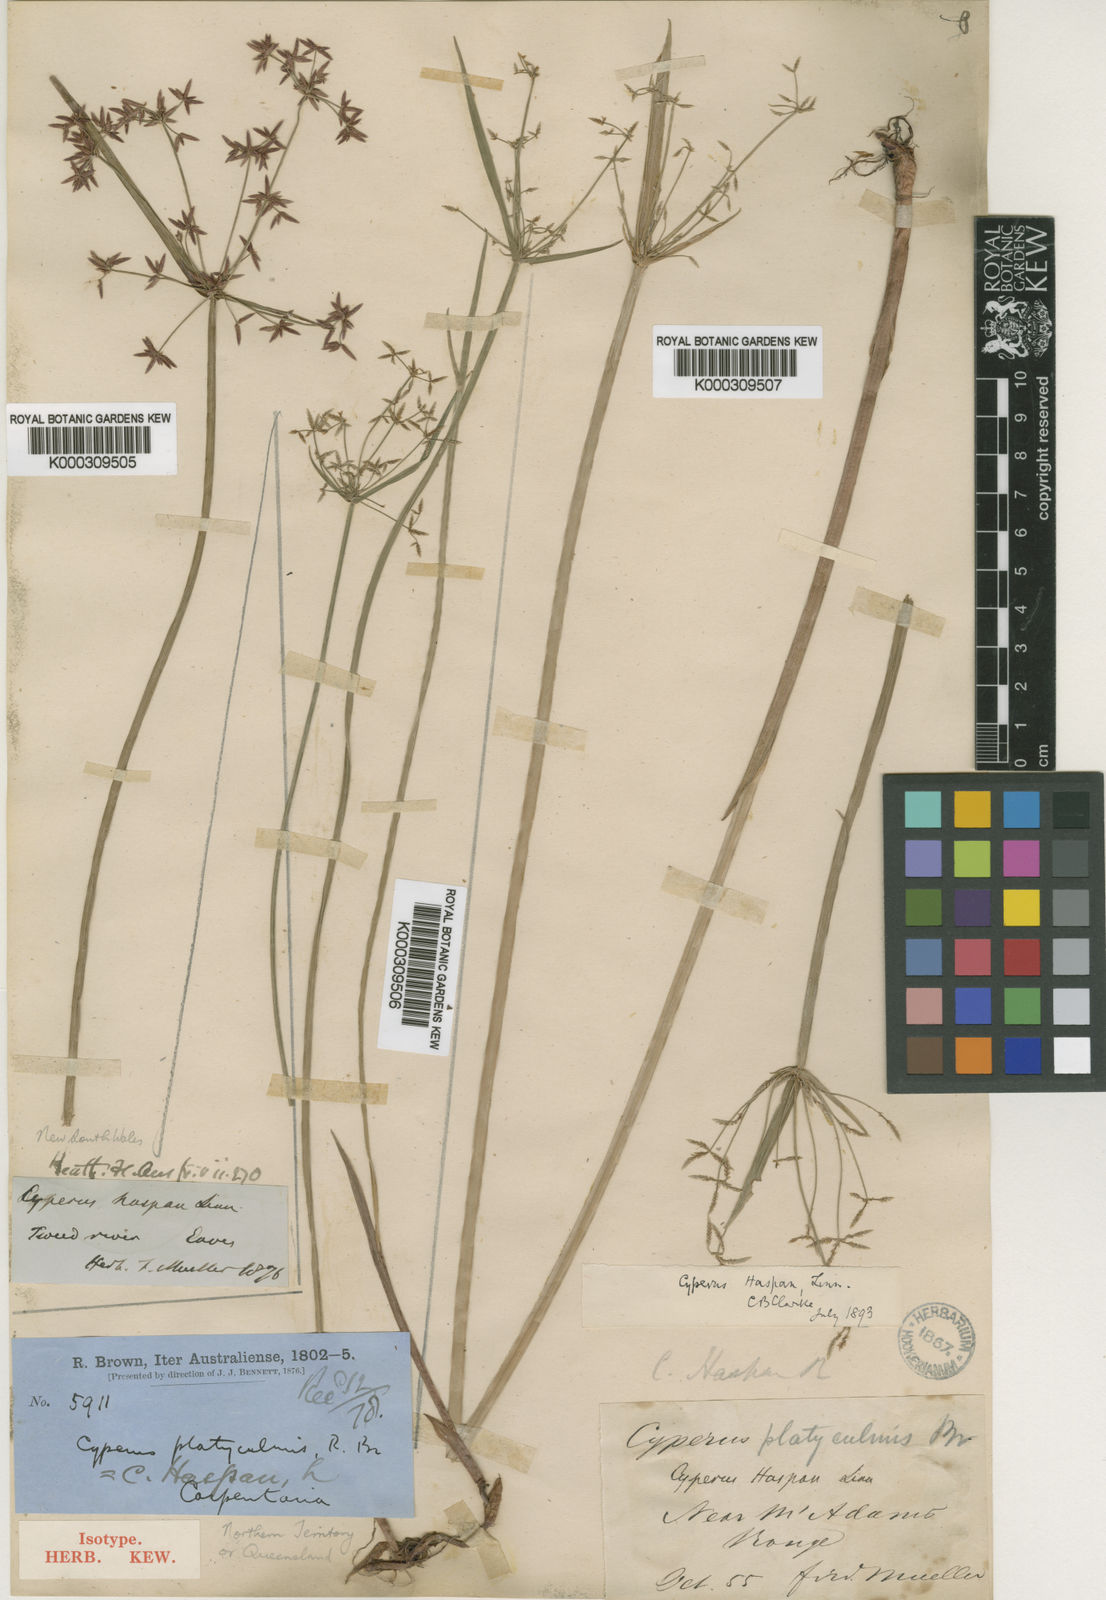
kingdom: Plantae
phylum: Tracheophyta
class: Liliopsida
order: Poales
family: Cyperaceae
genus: Cyperus
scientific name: Cyperus haspan
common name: Haspan flatsedge
